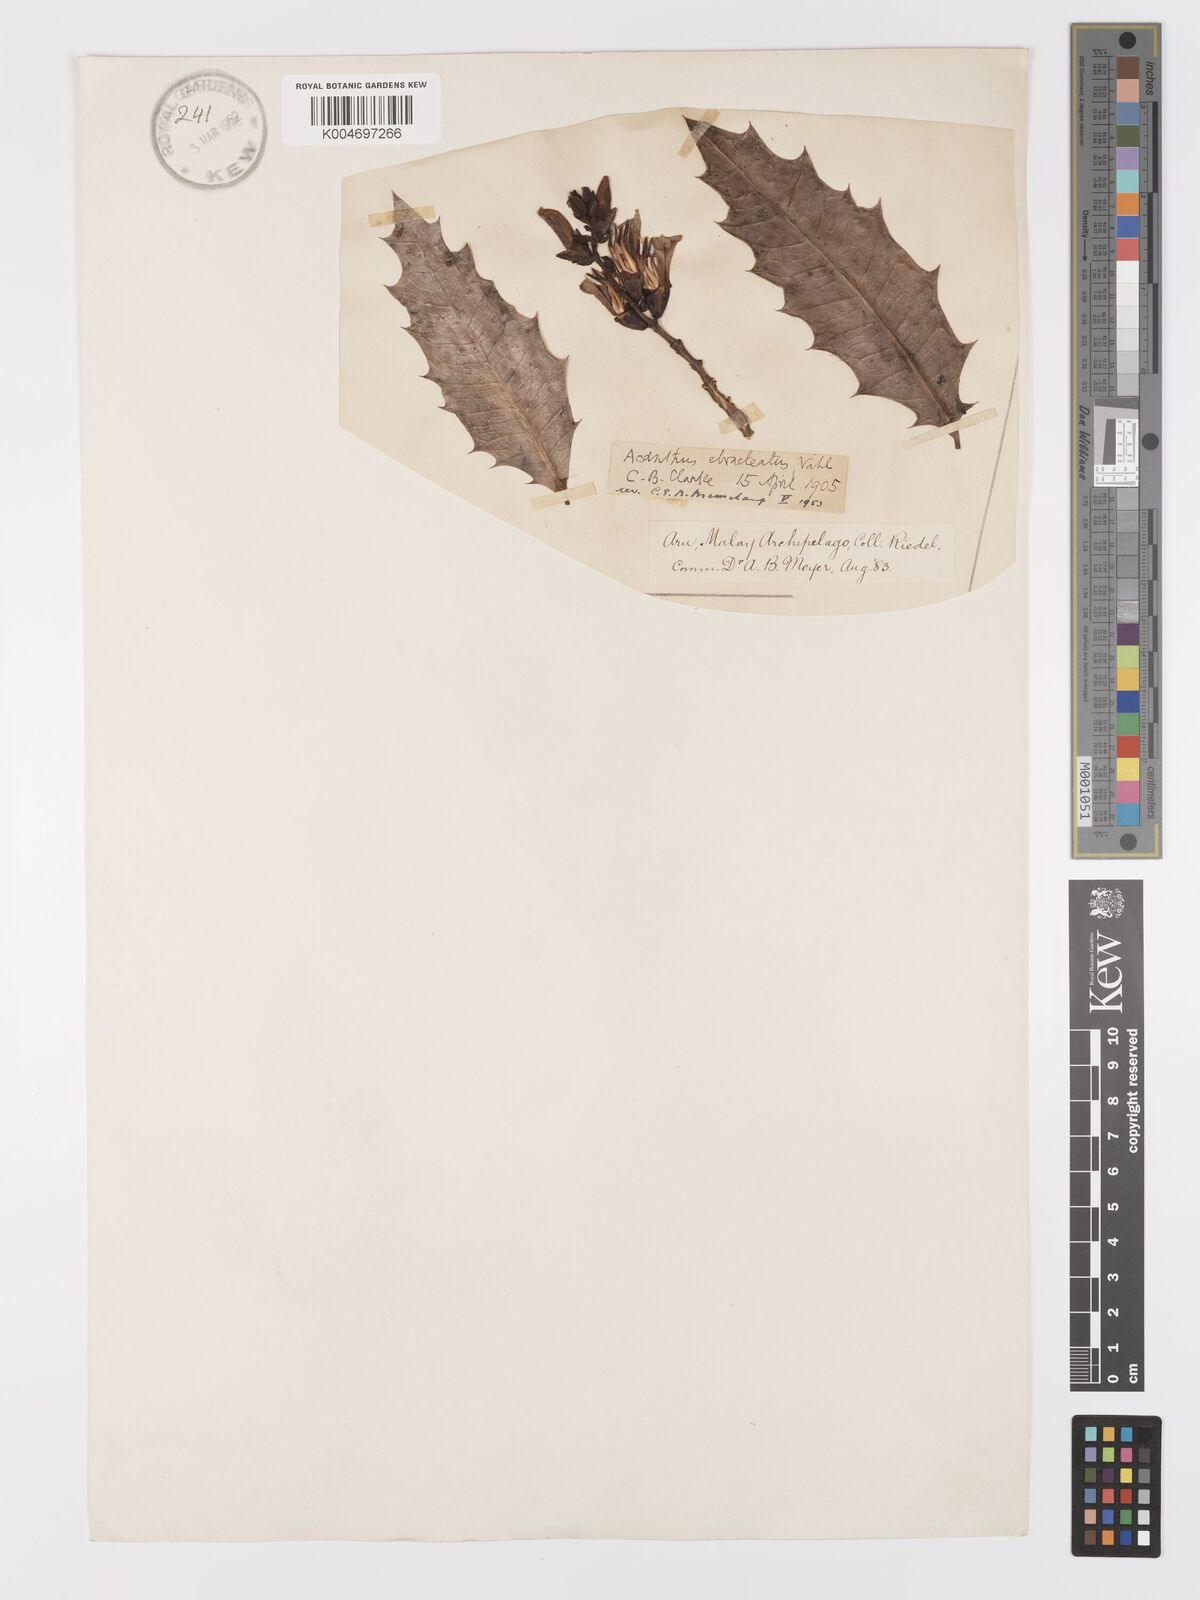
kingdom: Plantae
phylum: Tracheophyta
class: Magnoliopsida
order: Lamiales
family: Acanthaceae
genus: Acanthus
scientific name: Acanthus ebracteatus
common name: Acanthus
